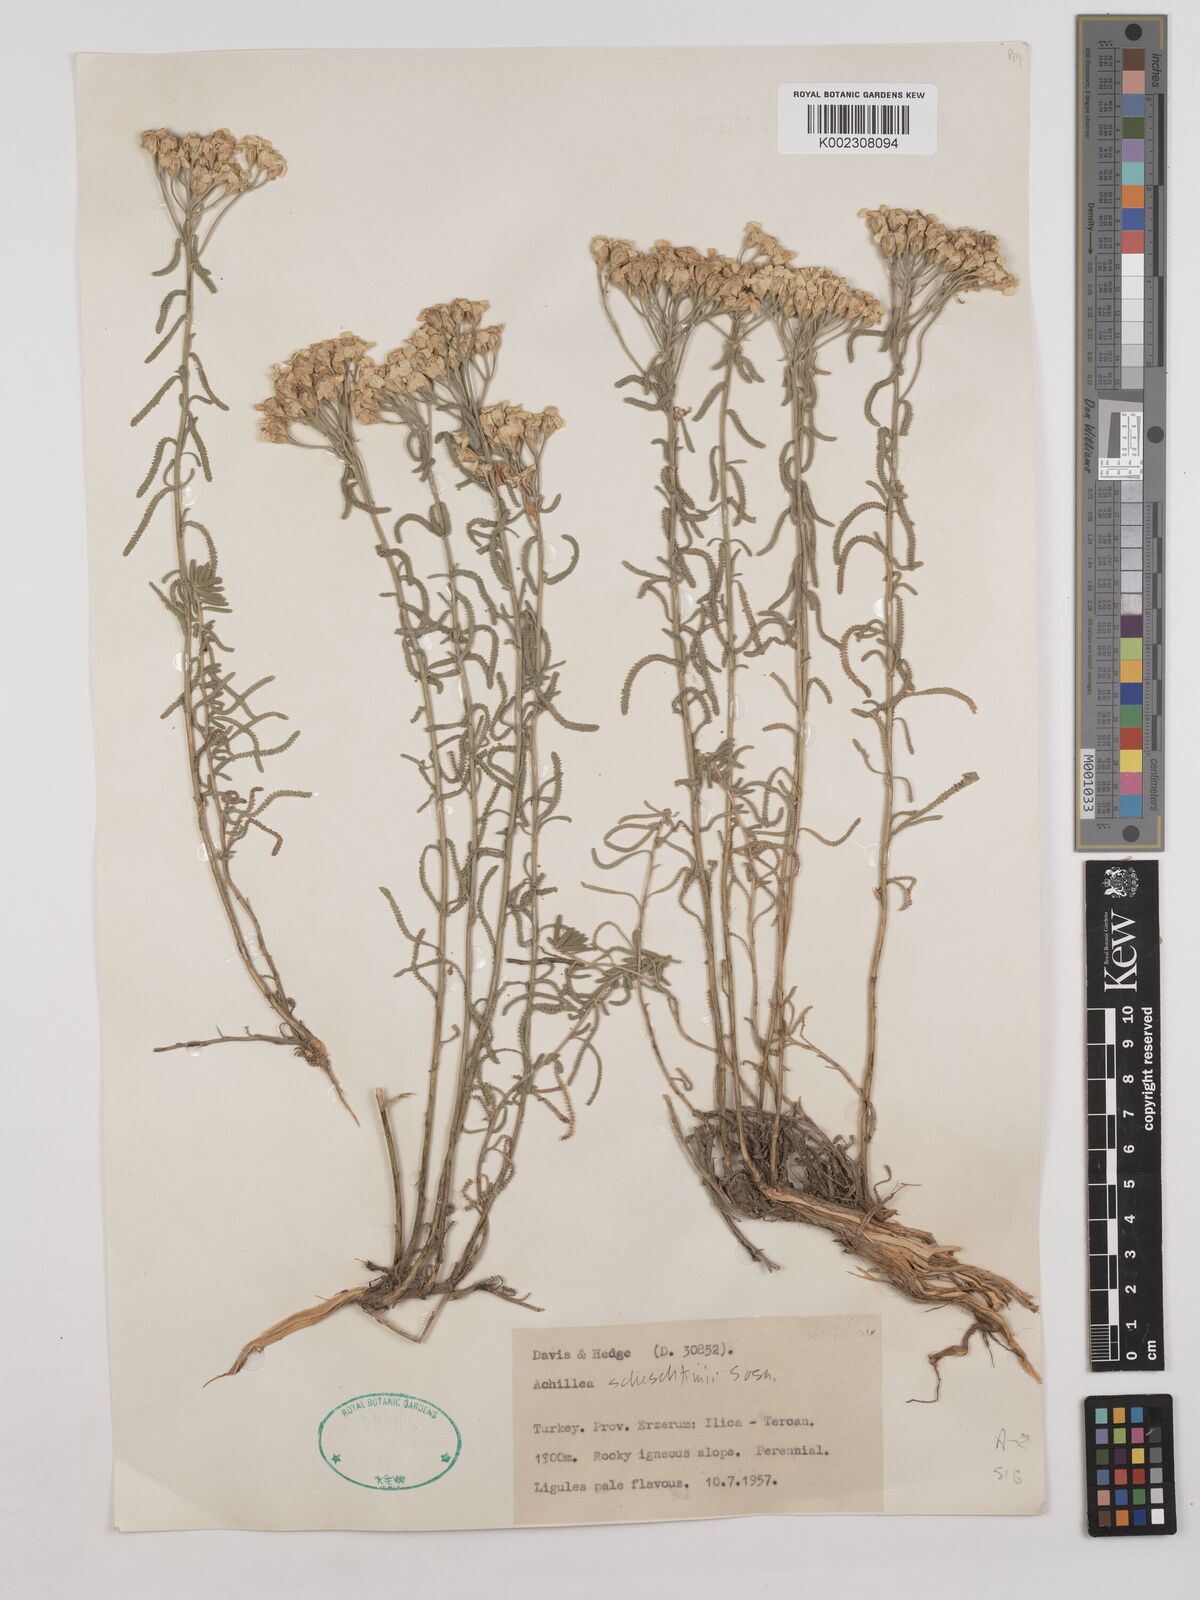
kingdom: Plantae
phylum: Tracheophyta
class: Magnoliopsida
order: Asterales
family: Asteraceae
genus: Achillea
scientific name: Achillea schischkinii
